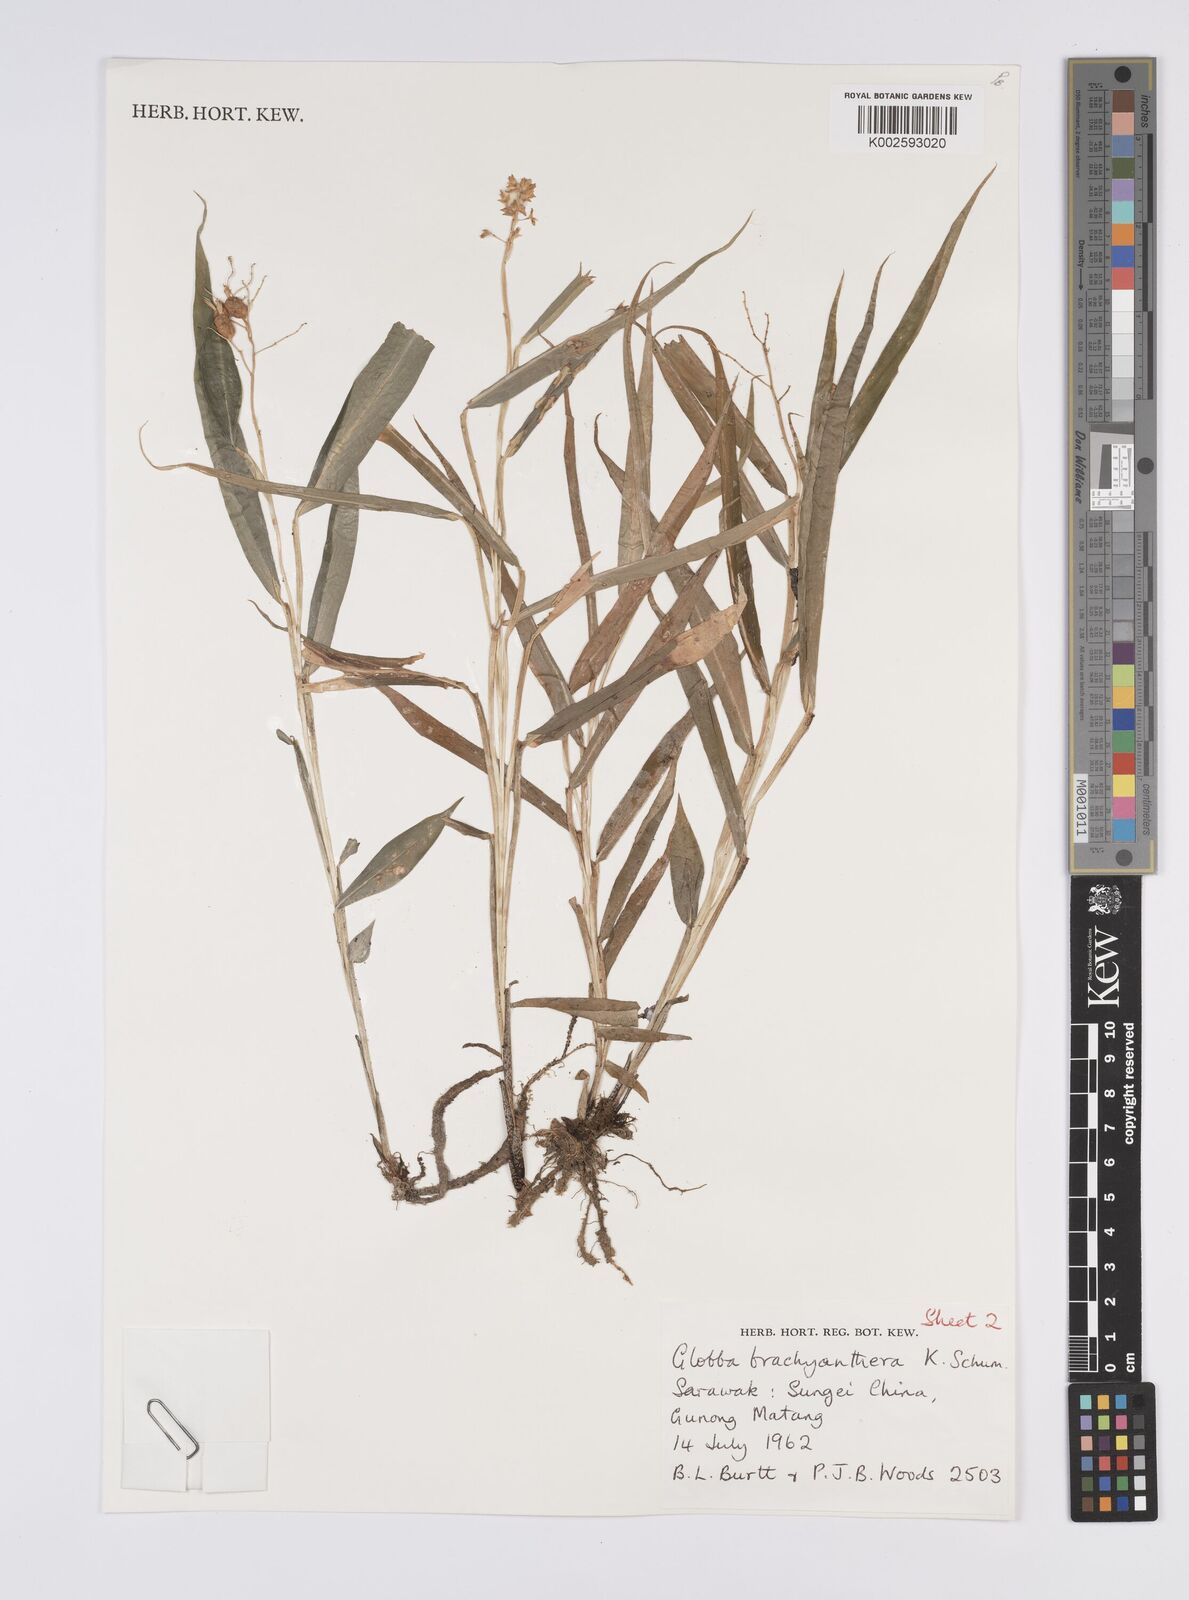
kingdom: Plantae
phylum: Tracheophyta
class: Liliopsida
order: Zingiberales
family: Zingiberaceae
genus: Globba
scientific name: Globba brachyanthera
